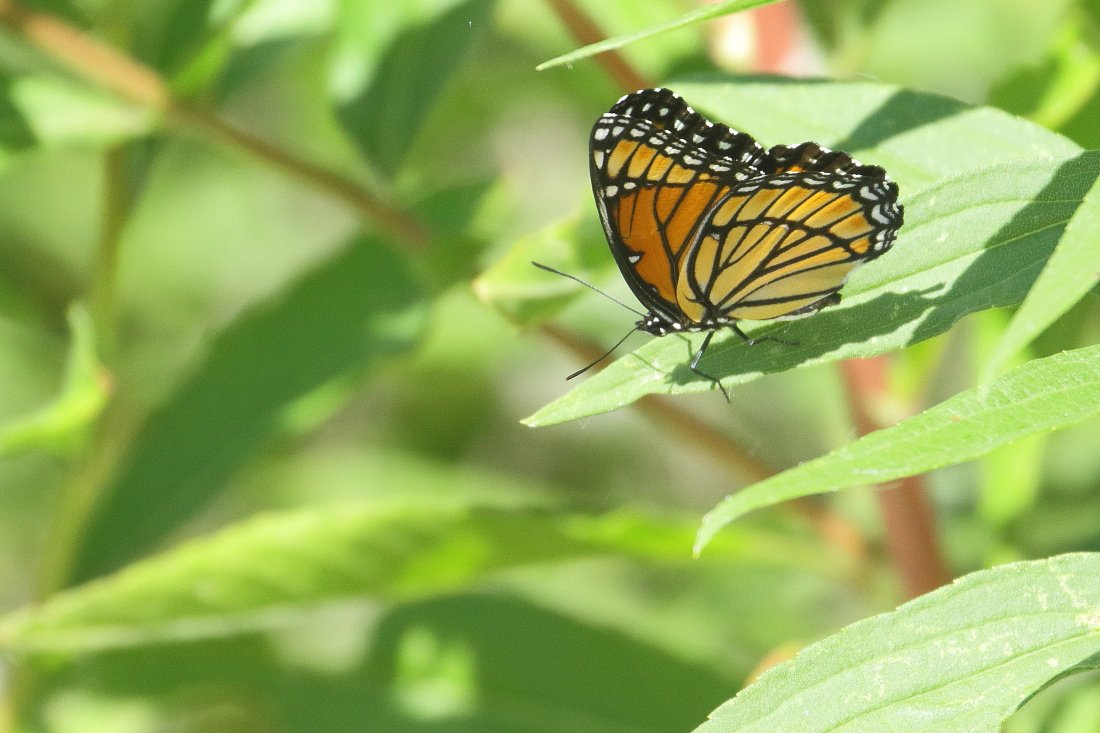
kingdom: Animalia
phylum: Arthropoda
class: Insecta
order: Lepidoptera
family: Nymphalidae
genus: Limenitis
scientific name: Limenitis archippus
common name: Viceroy
